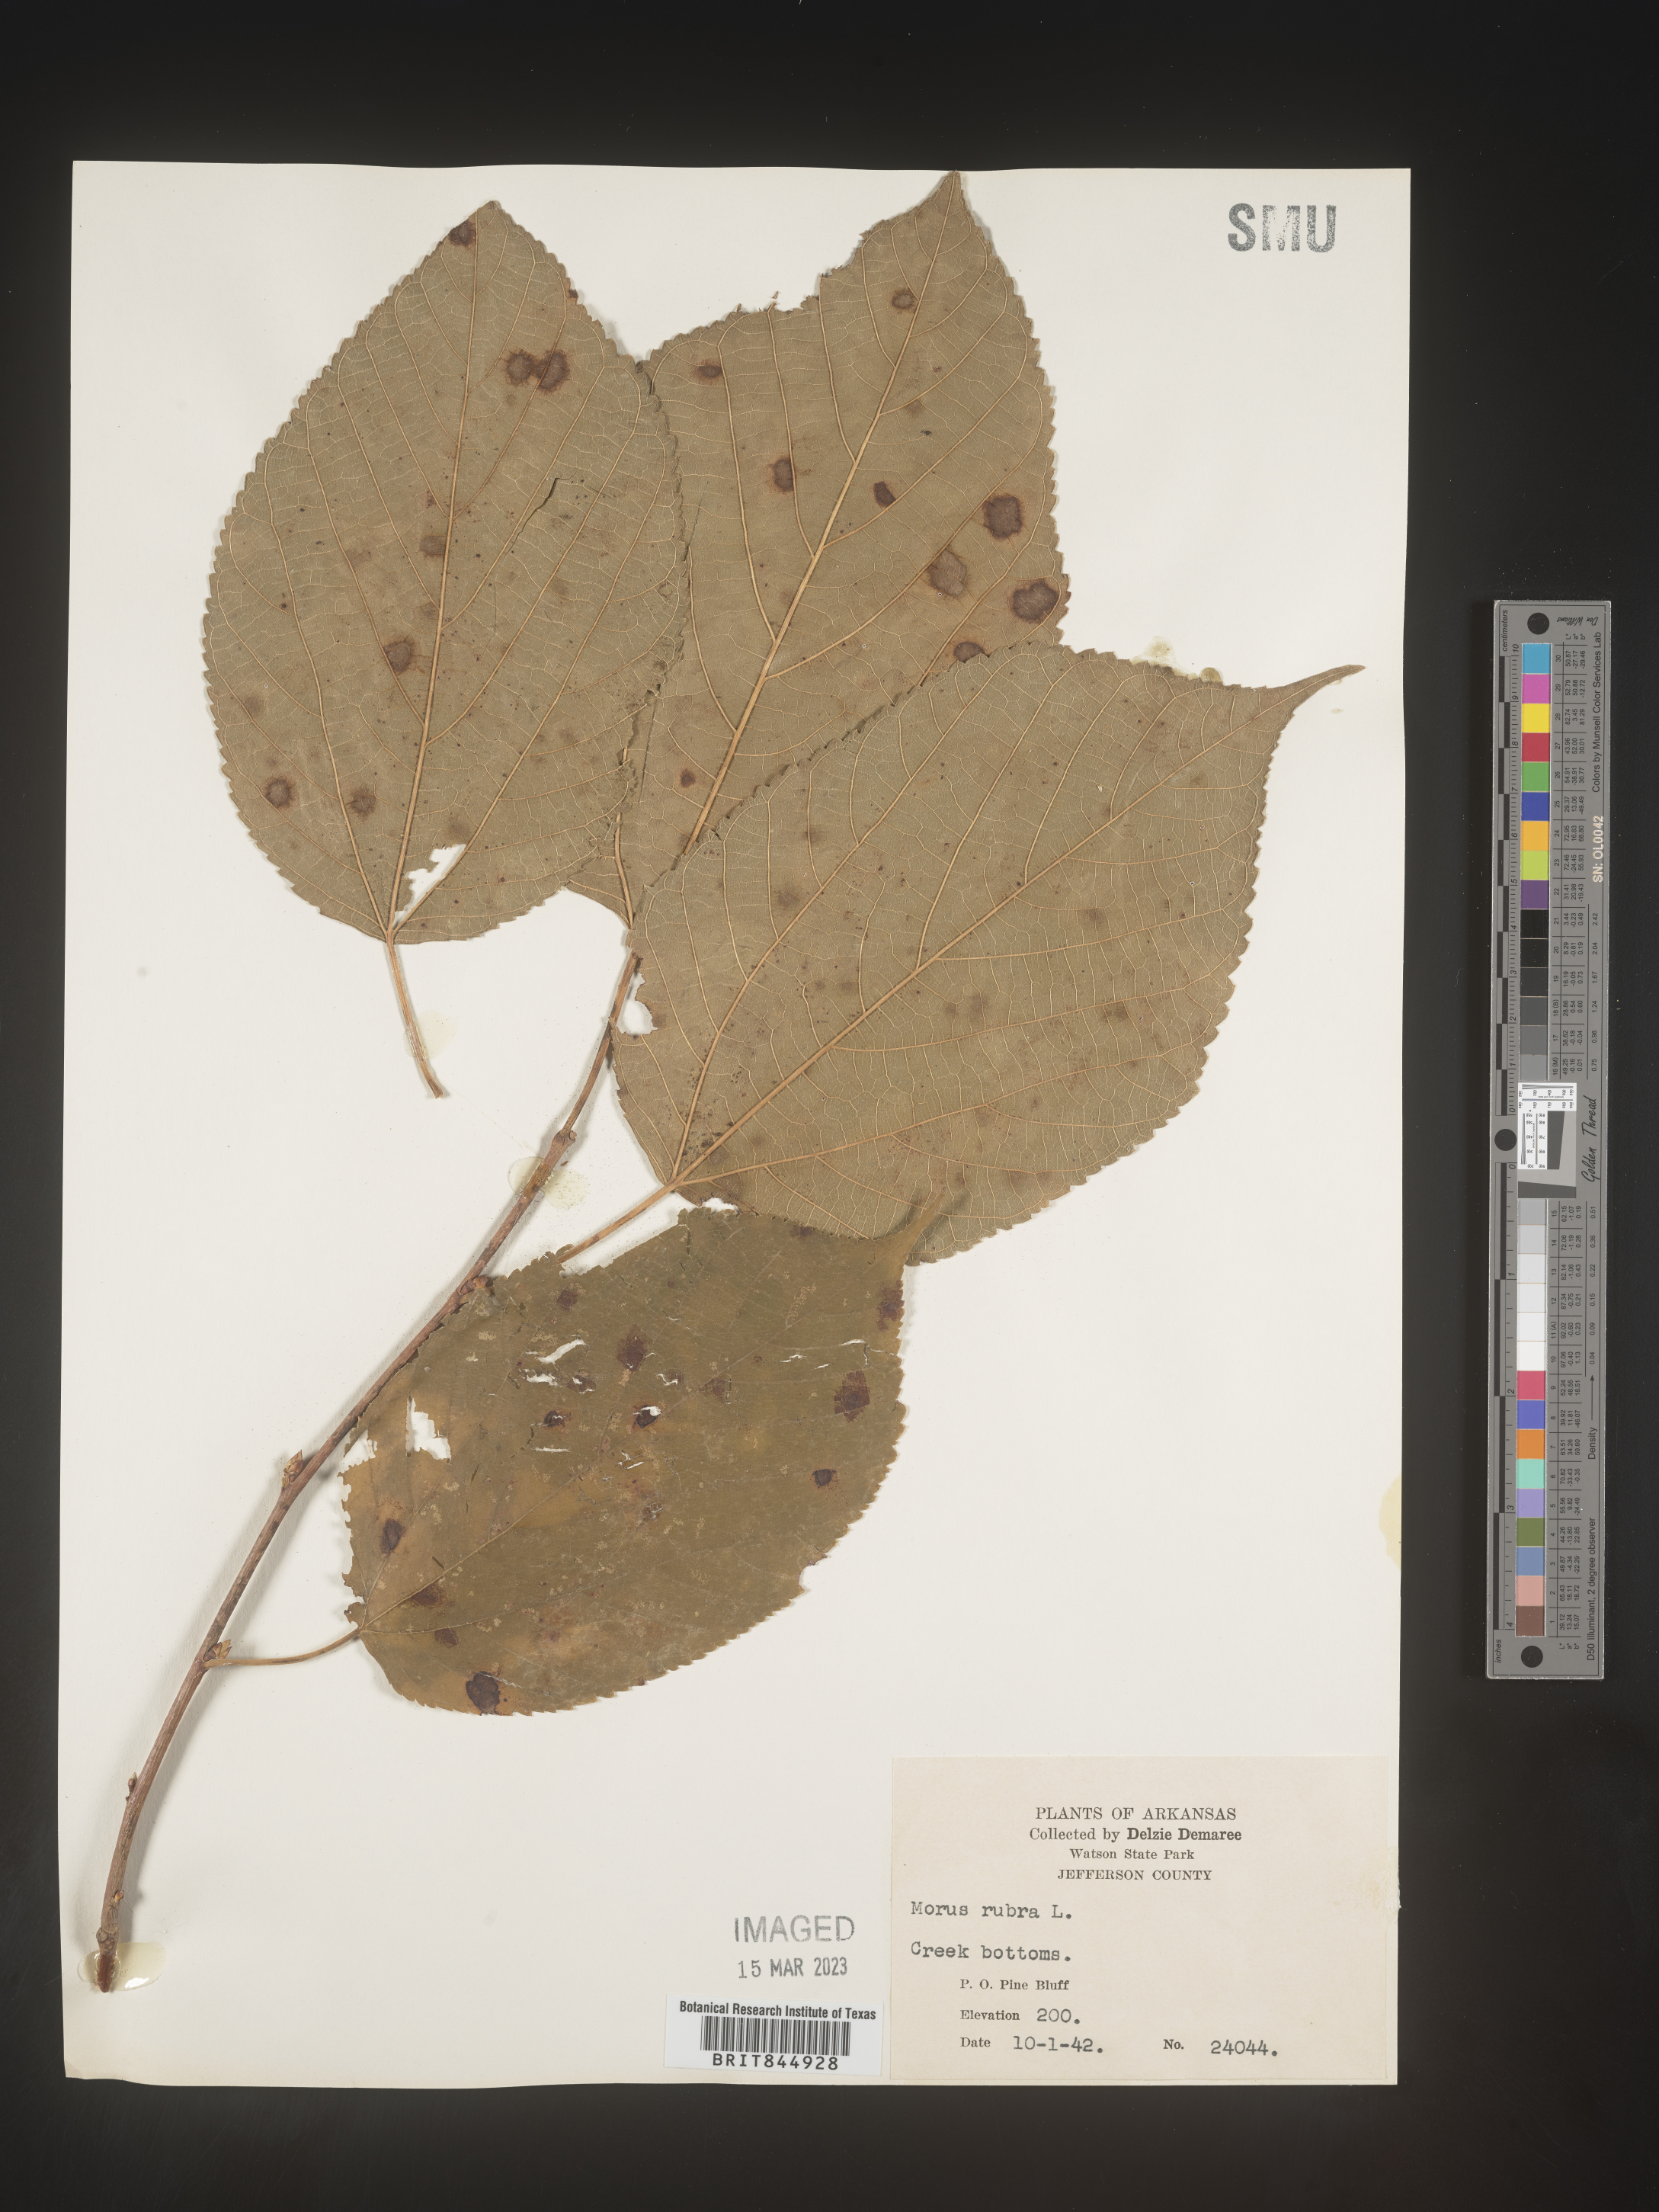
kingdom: Plantae
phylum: Tracheophyta
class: Magnoliopsida
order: Rosales
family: Moraceae
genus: Morus
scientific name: Morus rubra
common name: Red mulberry
